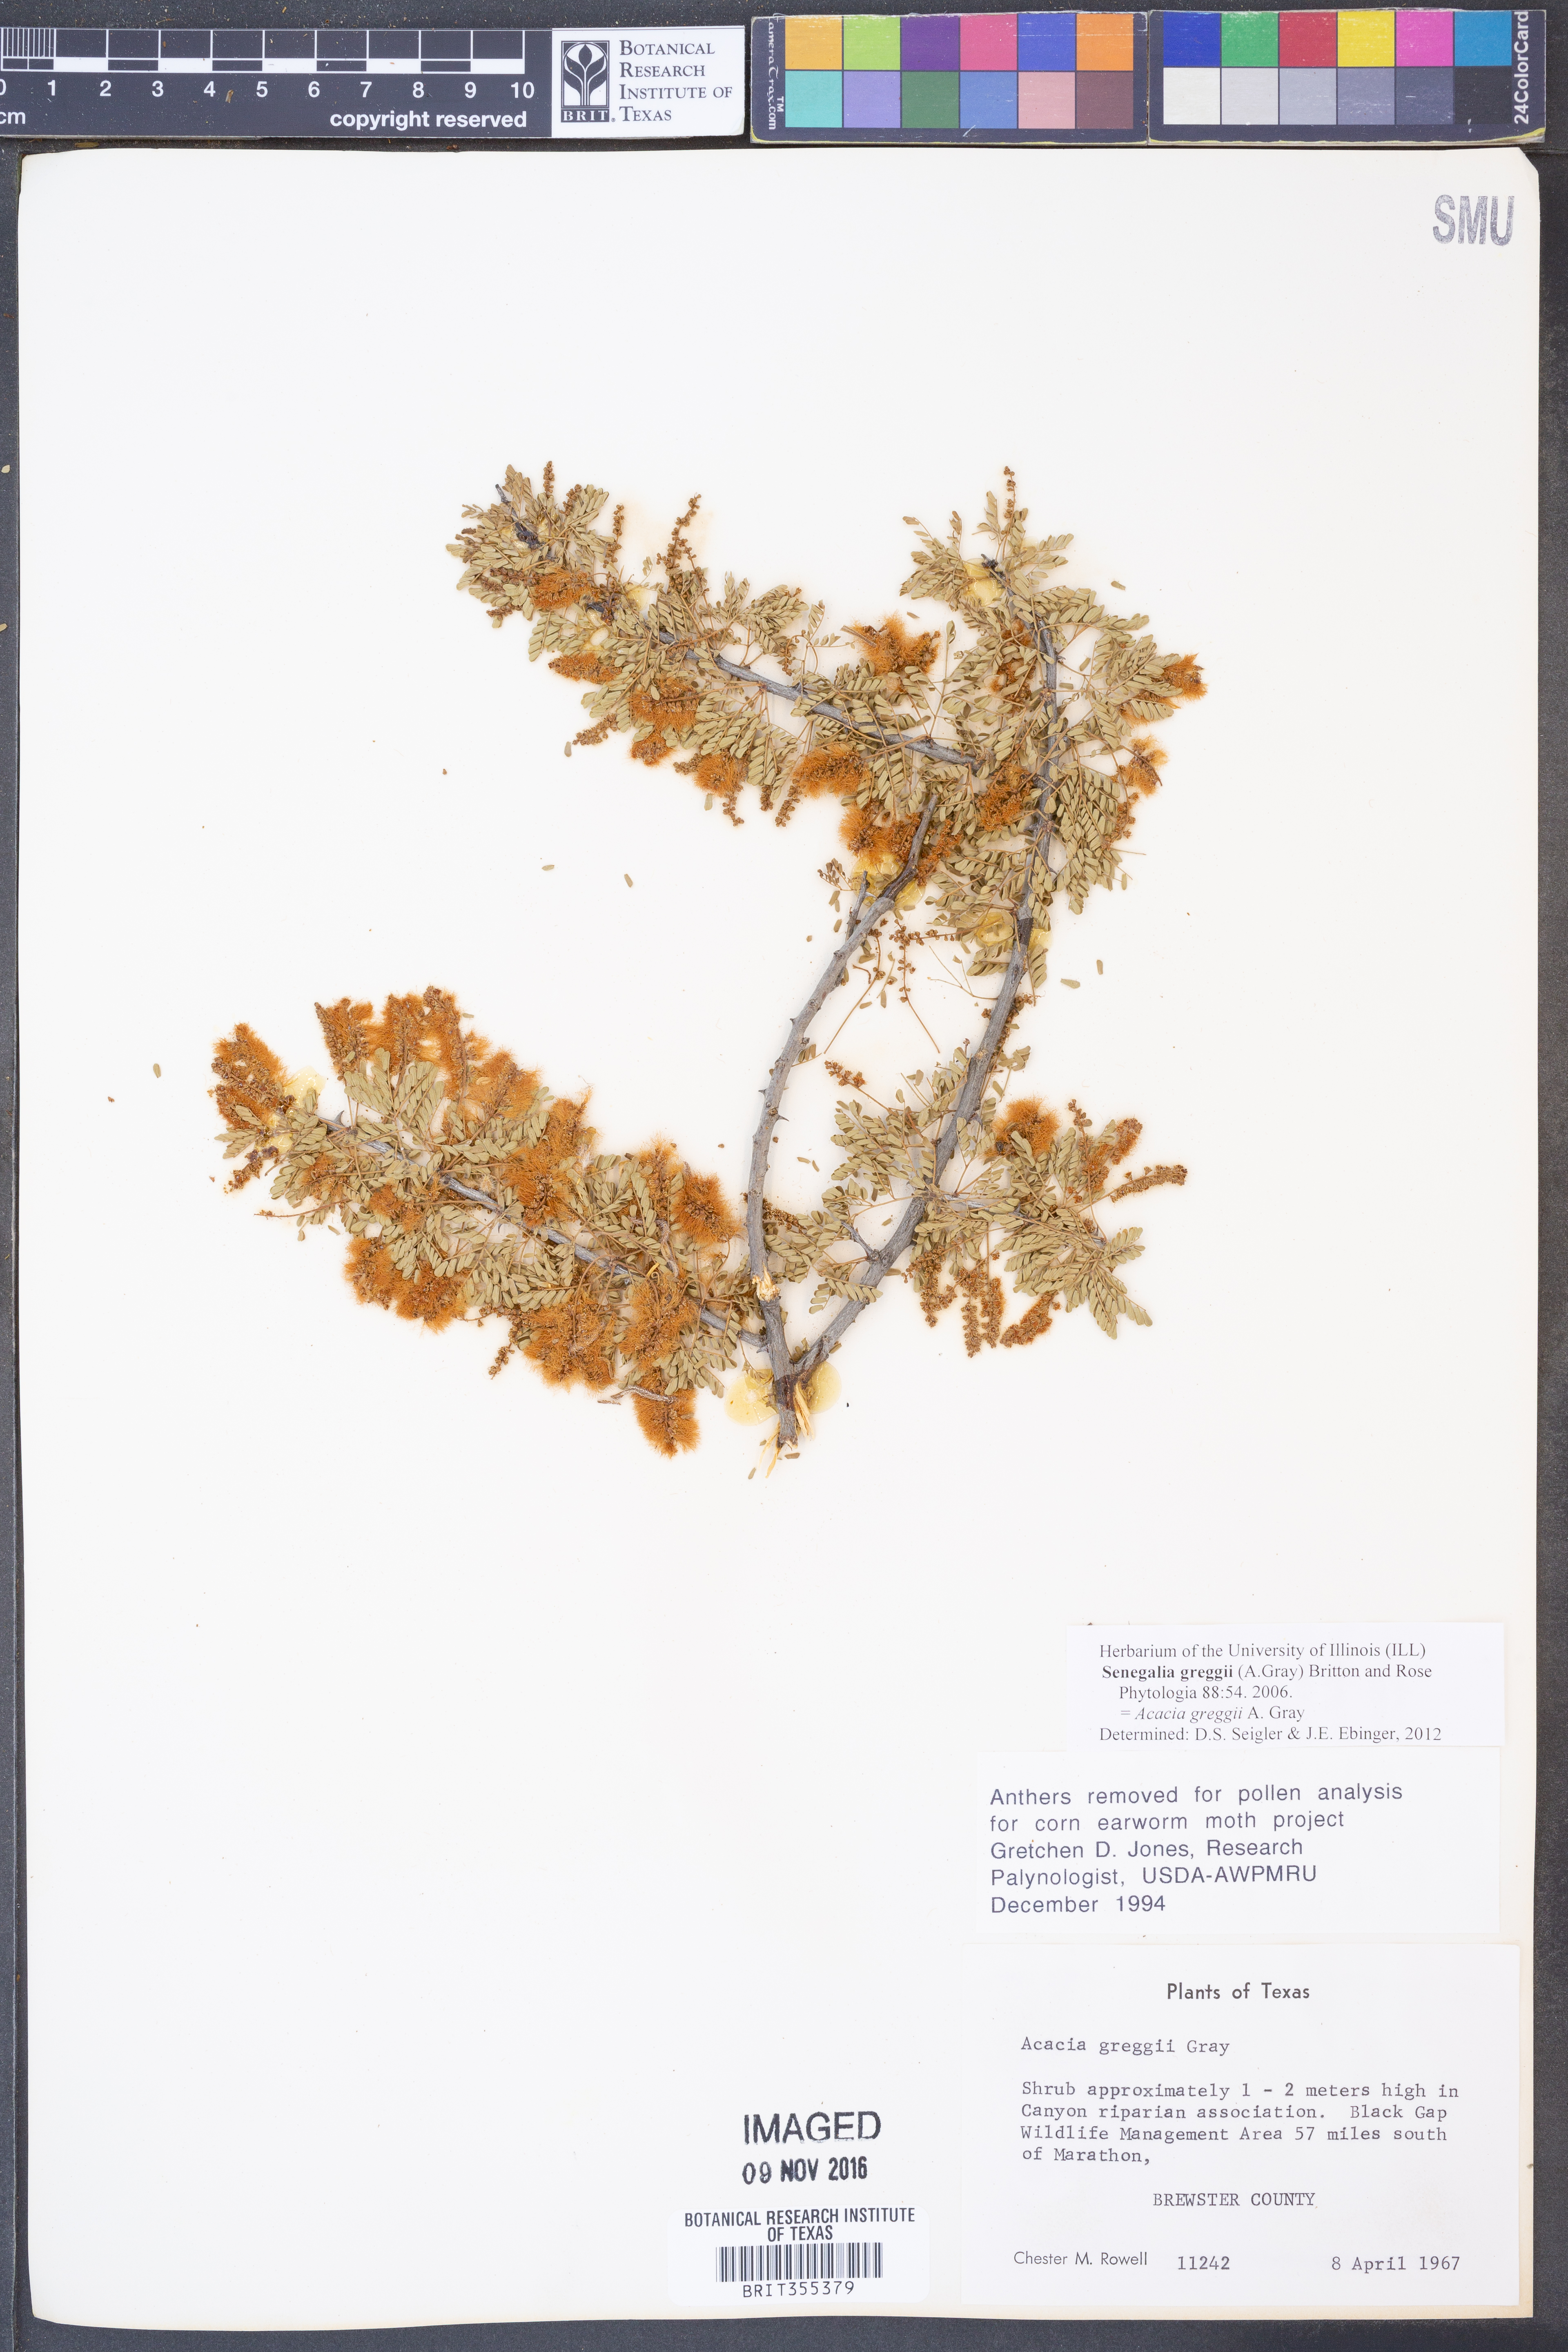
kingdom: Plantae
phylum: Tracheophyta
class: Magnoliopsida
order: Fabales
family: Fabaceae
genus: Senegalia
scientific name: Senegalia greggii
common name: Texas-mimosa
